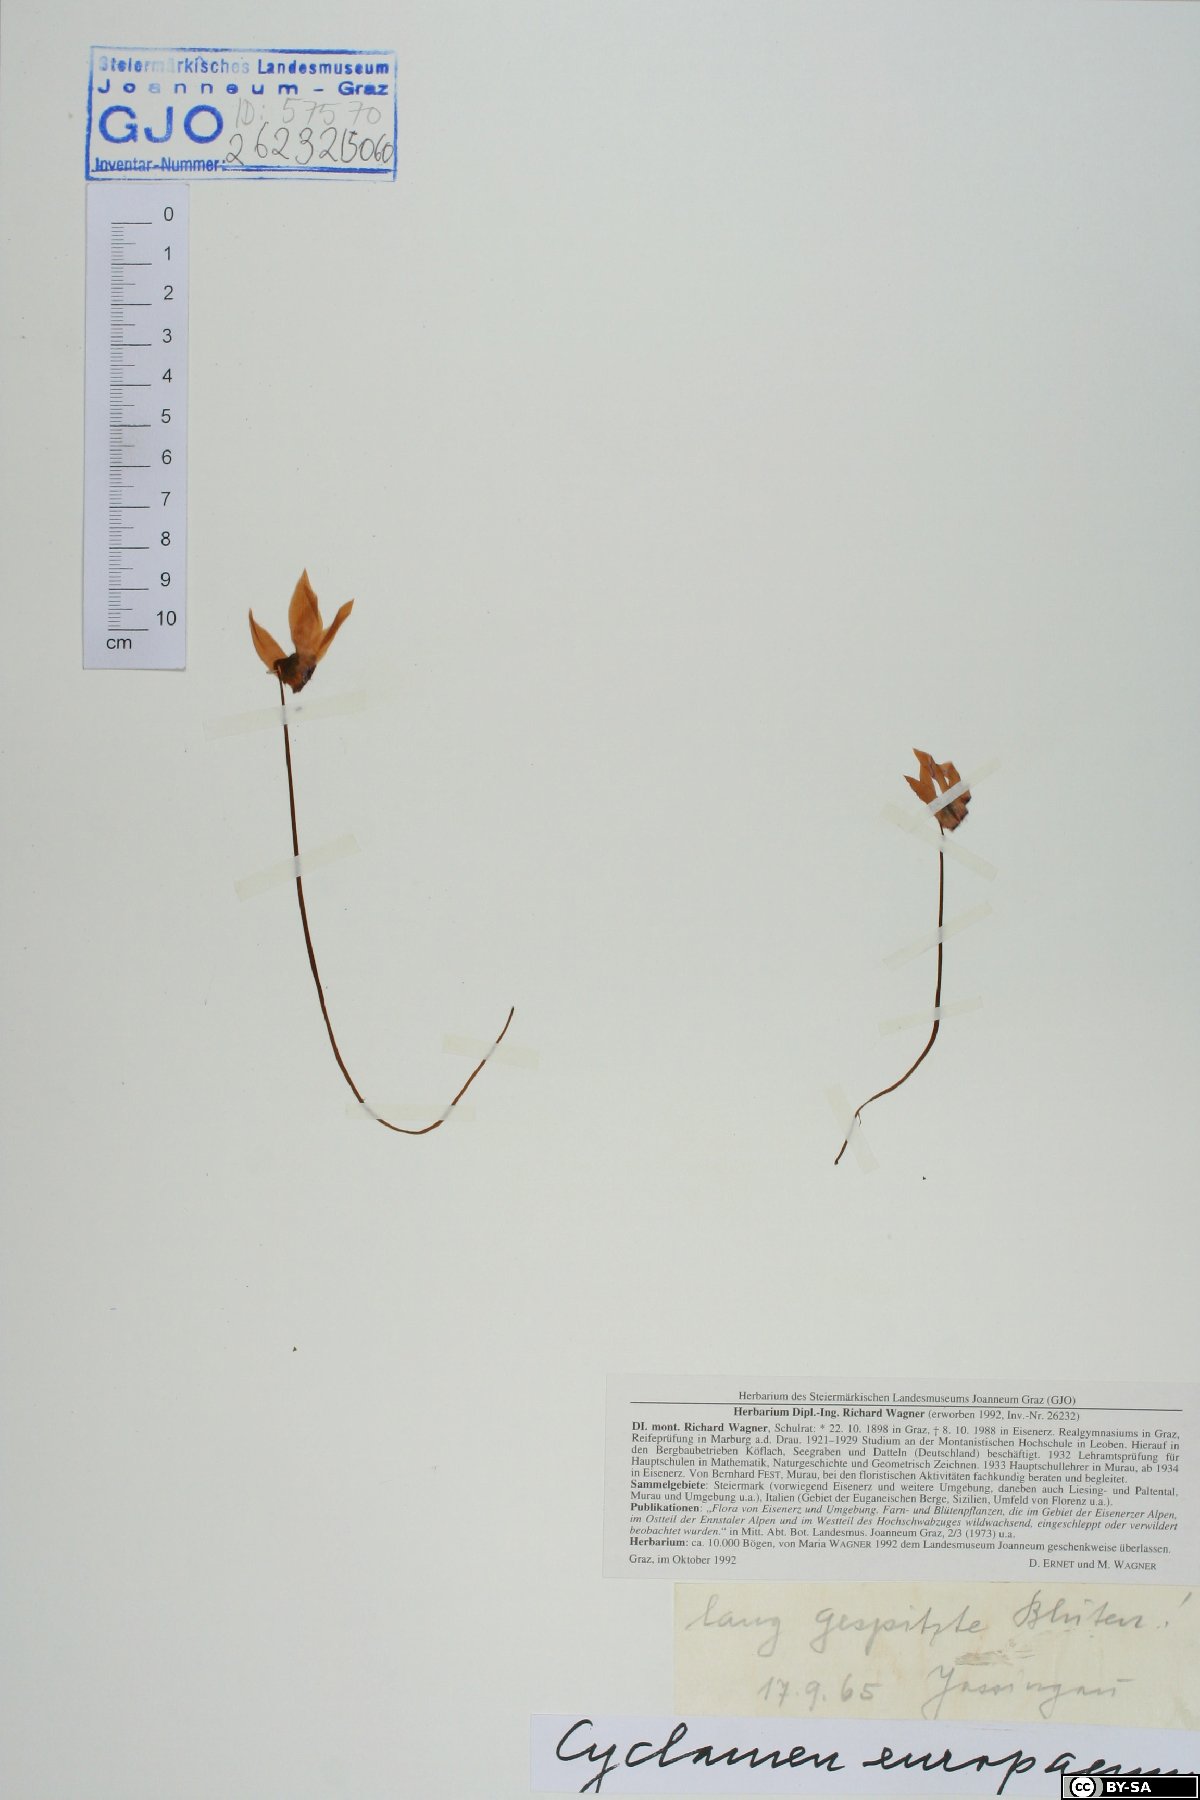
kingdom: Plantae
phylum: Tracheophyta
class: Magnoliopsida
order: Ericales
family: Primulaceae
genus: Cyclamen
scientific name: Cyclamen purpurascens
